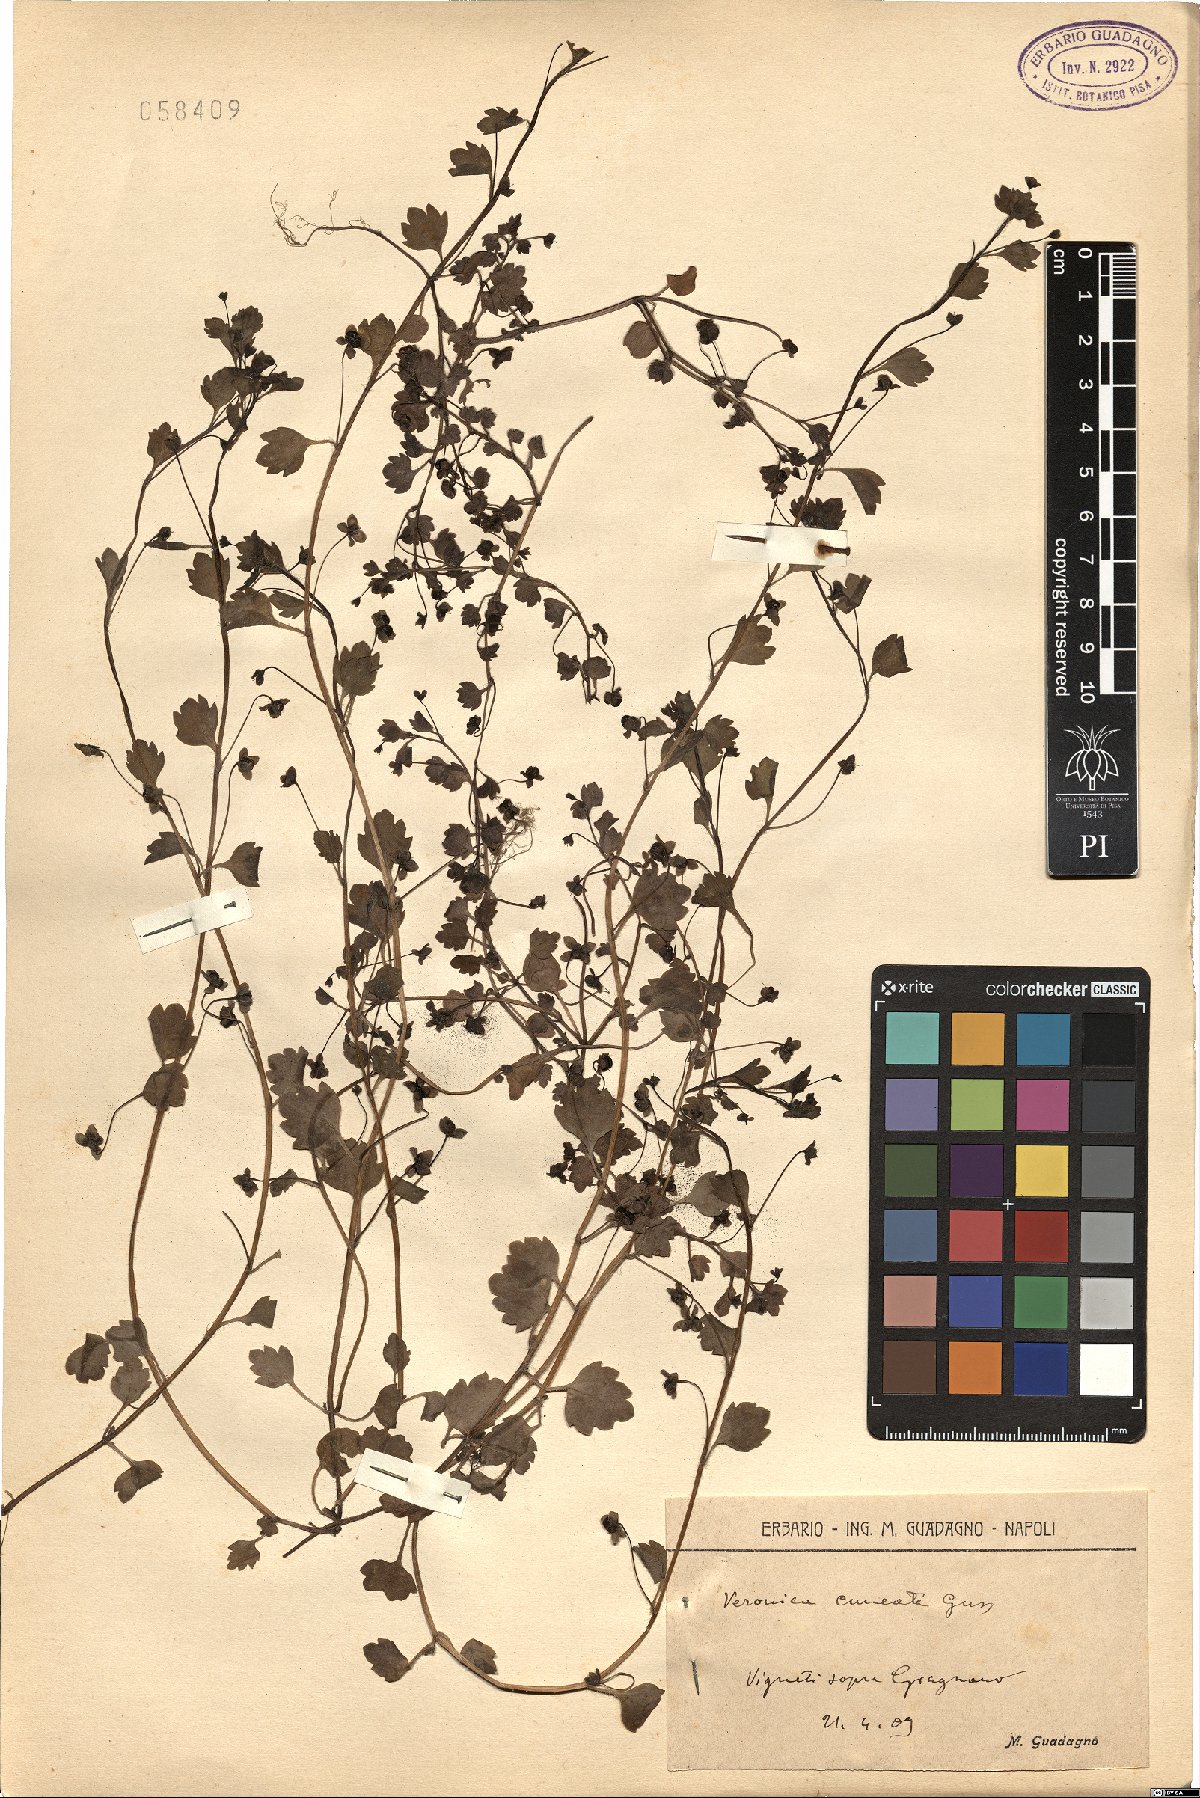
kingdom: Plantae
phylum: Tracheophyta
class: Magnoliopsida
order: Lamiales
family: Plantaginaceae
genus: Veronica
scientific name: Veronica cymbalaria
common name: Pale speedwell
